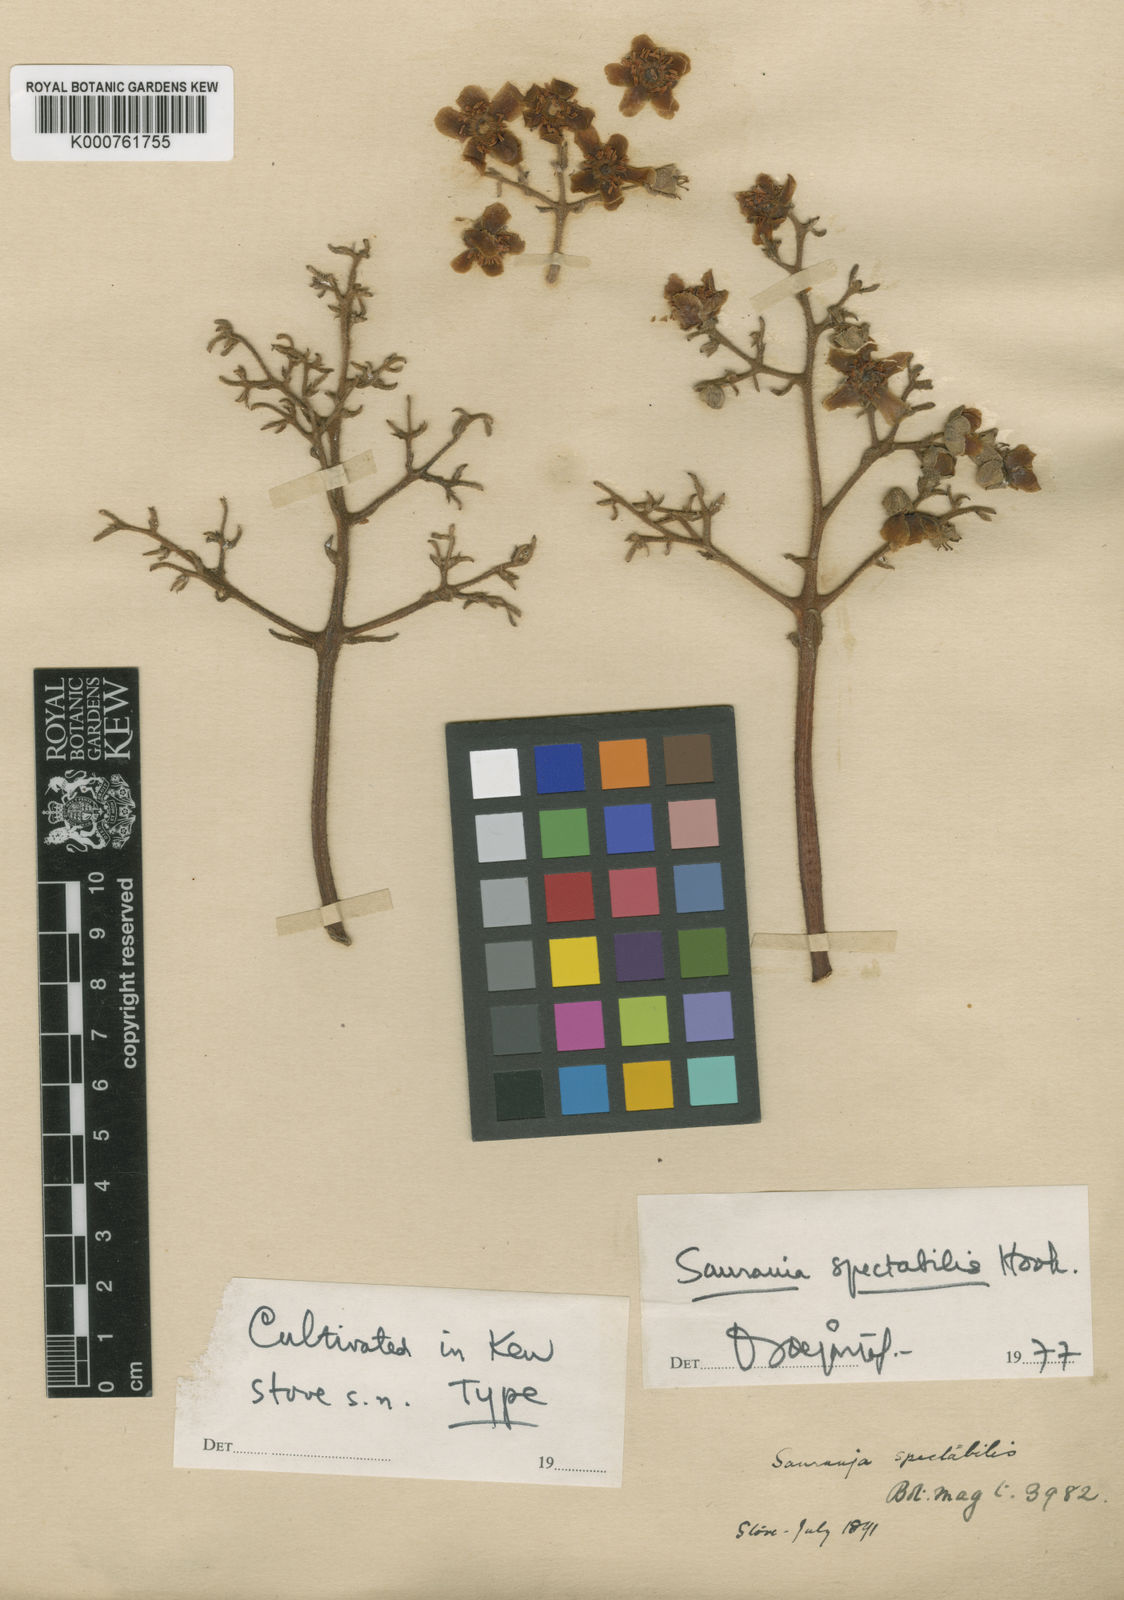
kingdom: Plantae
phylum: Tracheophyta
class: Magnoliopsida
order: Ericales
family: Actinidiaceae
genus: Saurauia
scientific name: Saurauia spectabilis
